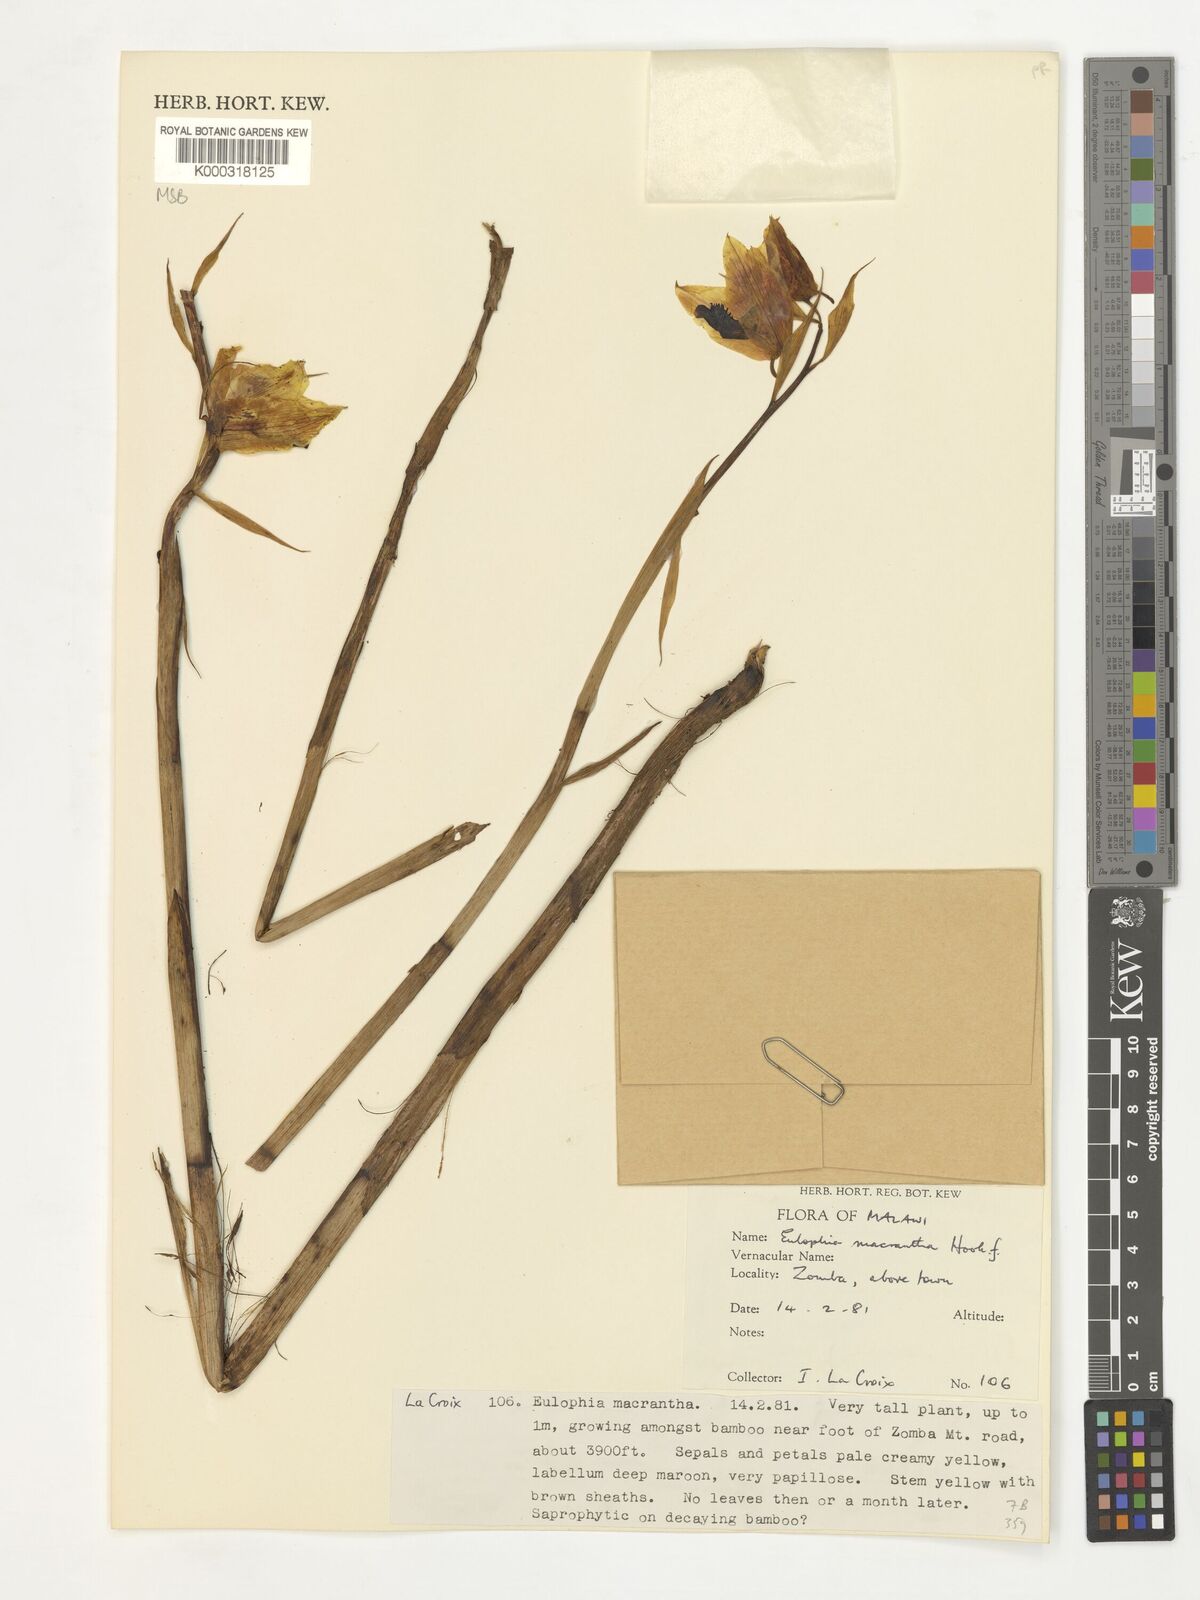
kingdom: Plantae
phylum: Tracheophyta
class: Liliopsida
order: Asparagales
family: Orchidaceae
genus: Eulophia
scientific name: Eulophia macrantha
